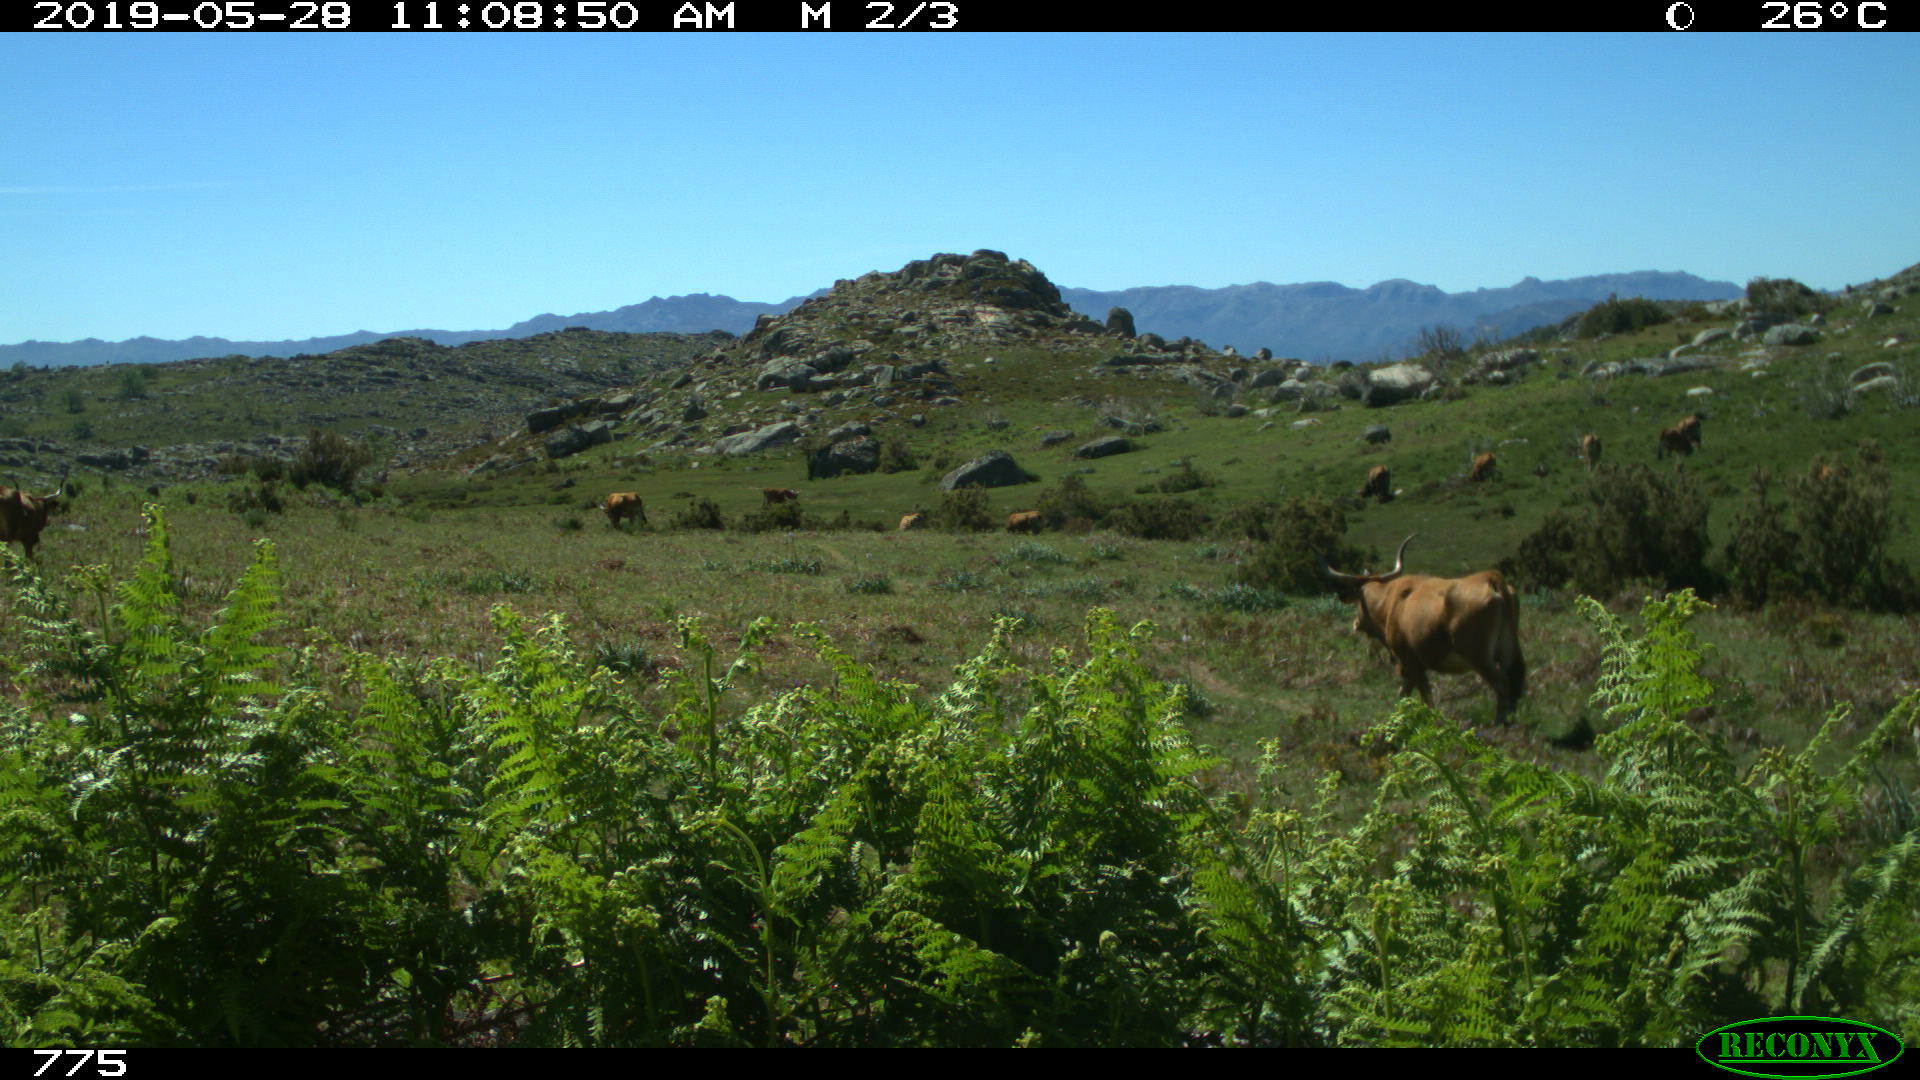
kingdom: Animalia
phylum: Chordata
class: Mammalia
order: Artiodactyla
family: Bovidae
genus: Bos
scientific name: Bos taurus
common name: Domesticated cattle
